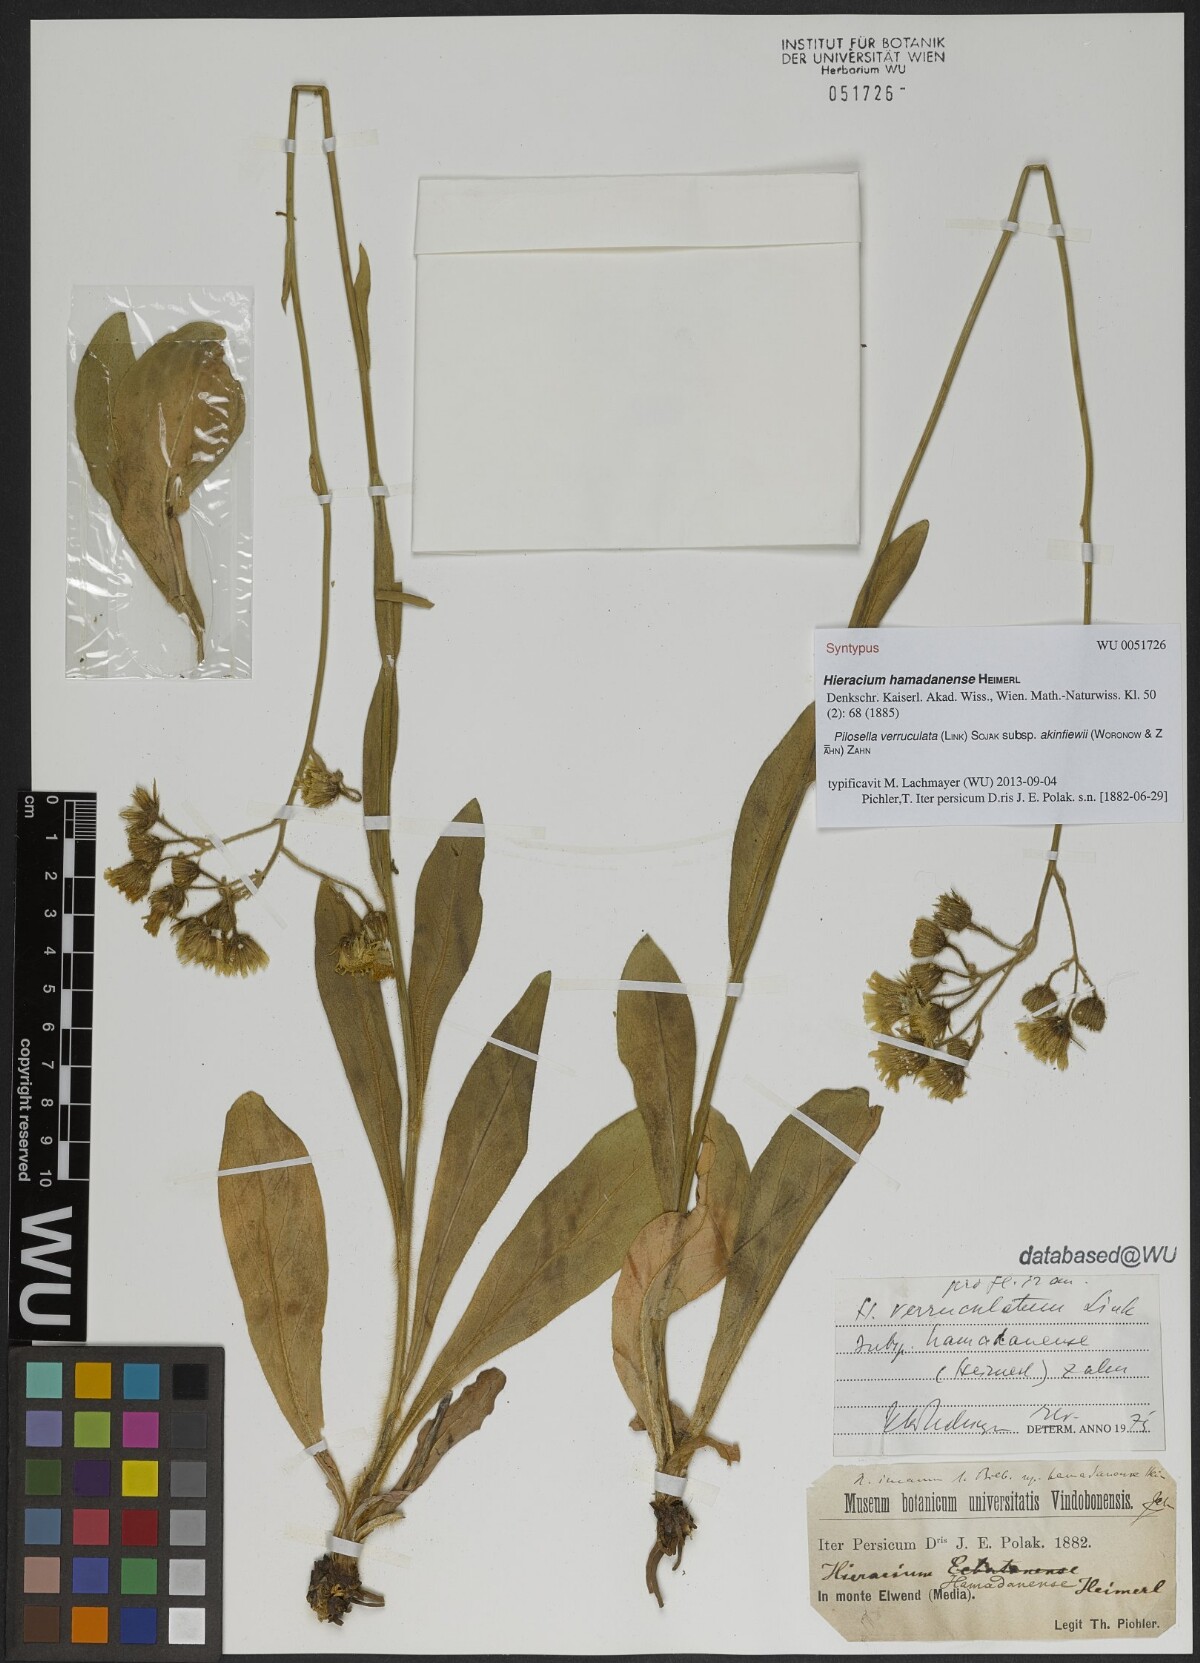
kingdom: Plantae
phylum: Tracheophyta
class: Magnoliopsida
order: Asterales
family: Asteraceae
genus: Pilosella
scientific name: Pilosella verruculata
